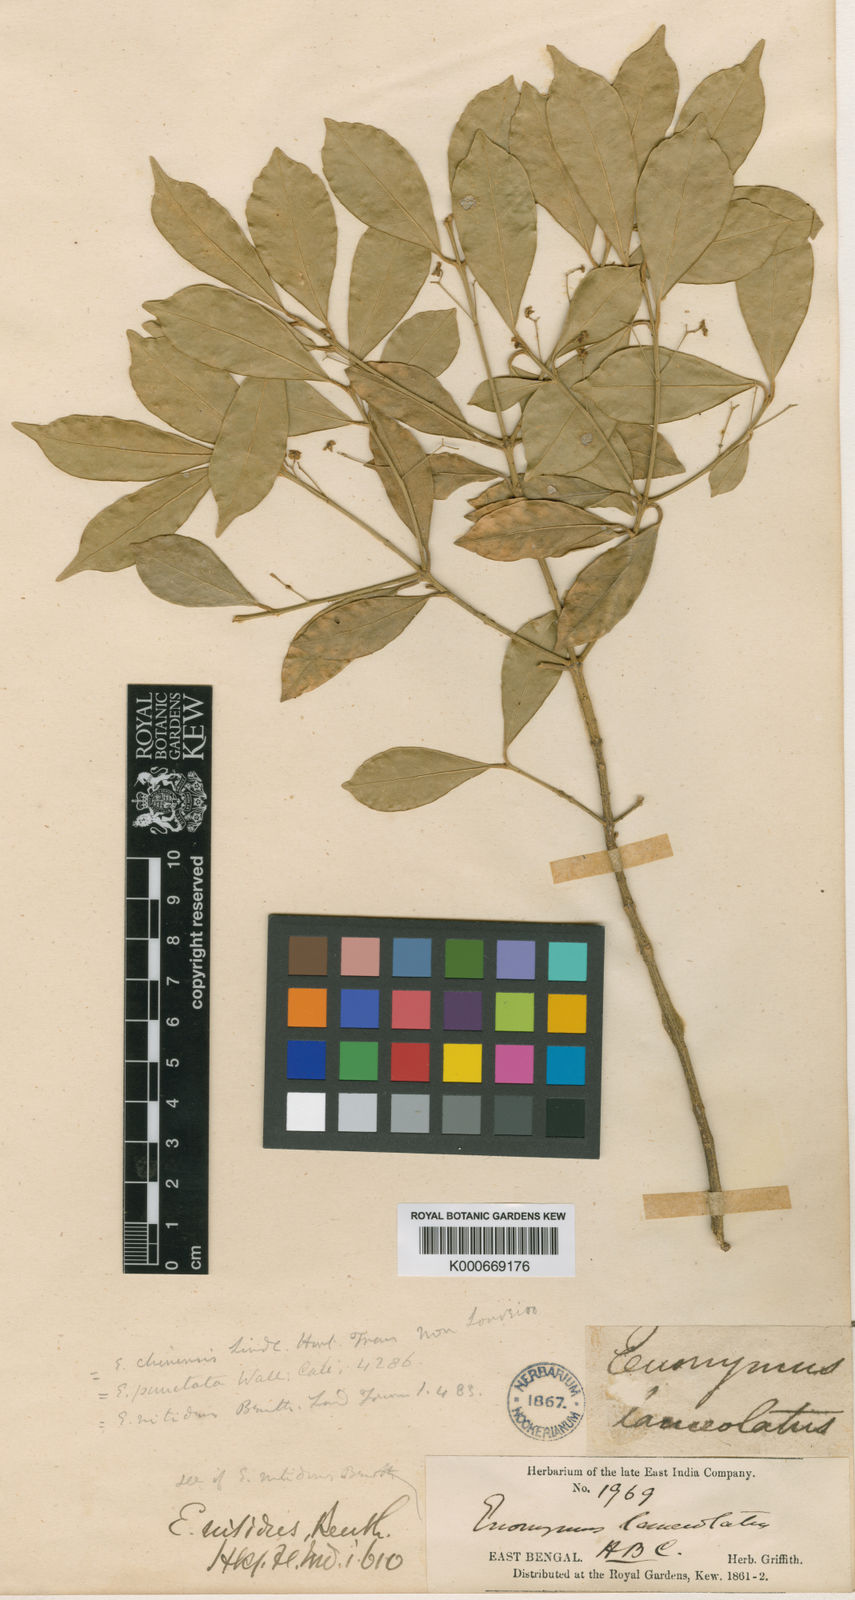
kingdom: Plantae
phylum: Tracheophyta
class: Magnoliopsida
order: Cucurbitales
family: Cucurbitaceae
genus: Trichosanthes
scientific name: Trichosanthes costata
